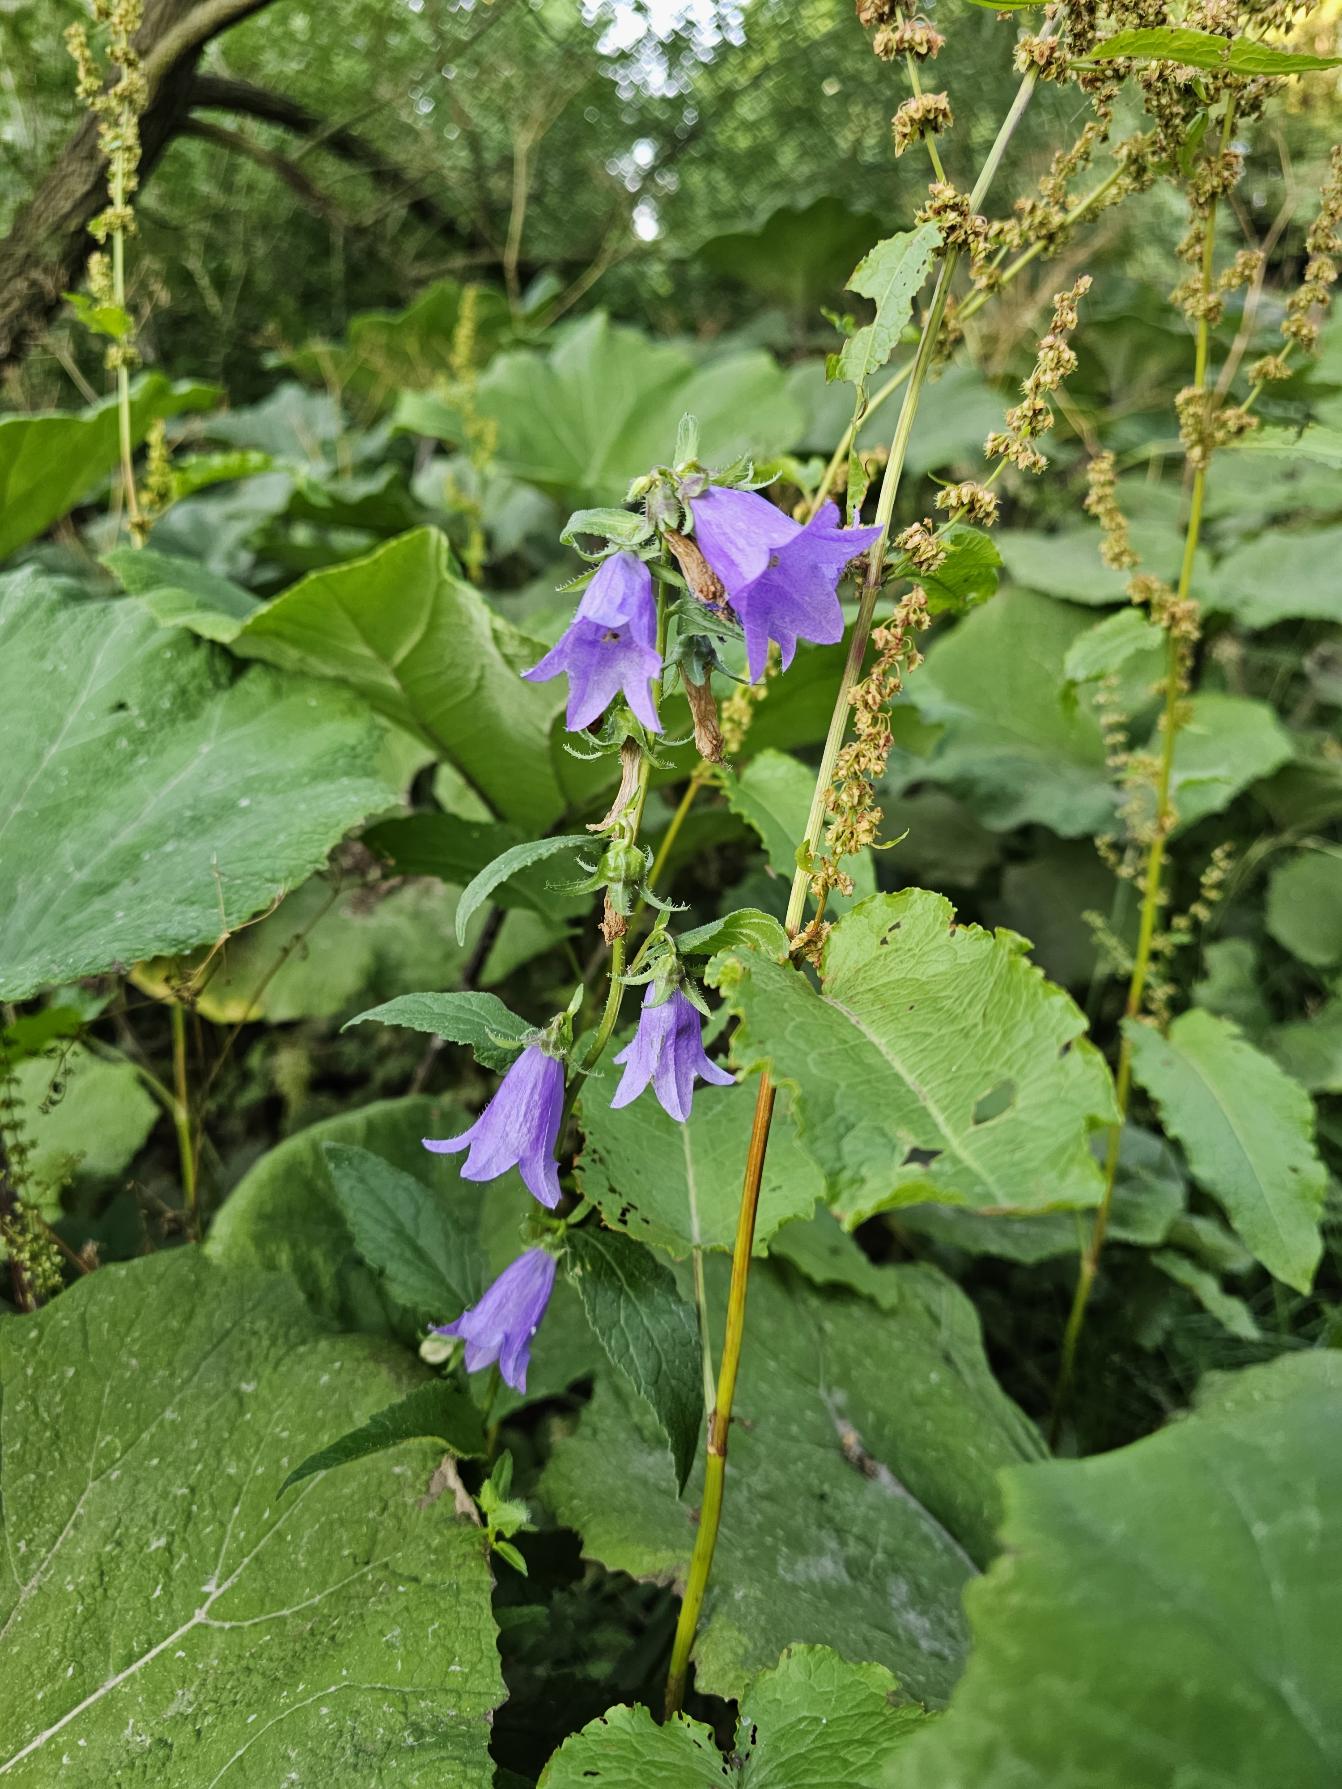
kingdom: Plantae
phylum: Tracheophyta
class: Magnoliopsida
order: Asterales
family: Campanulaceae
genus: Campanula
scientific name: Campanula trachelium
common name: Nælde-klokke
